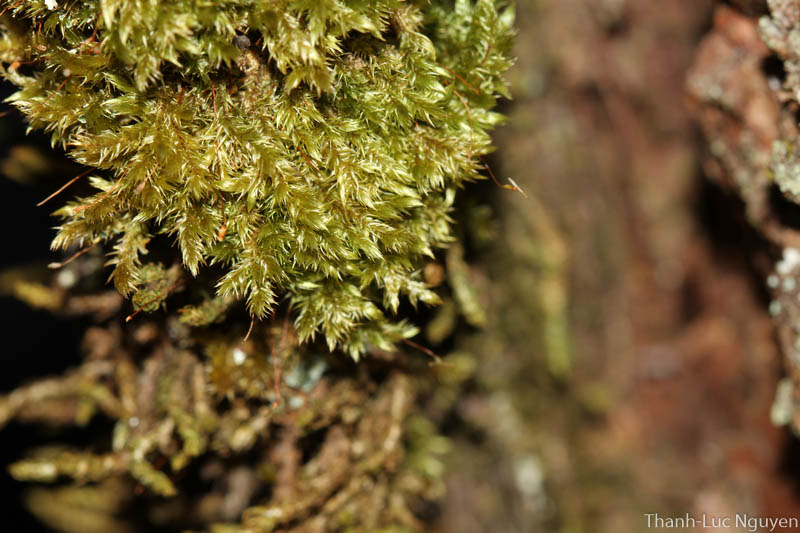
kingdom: Plantae
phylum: Bryophyta
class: Bryopsida
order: Hypnales
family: Sematophyllaceae
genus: Acroporium
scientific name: Acroporium
